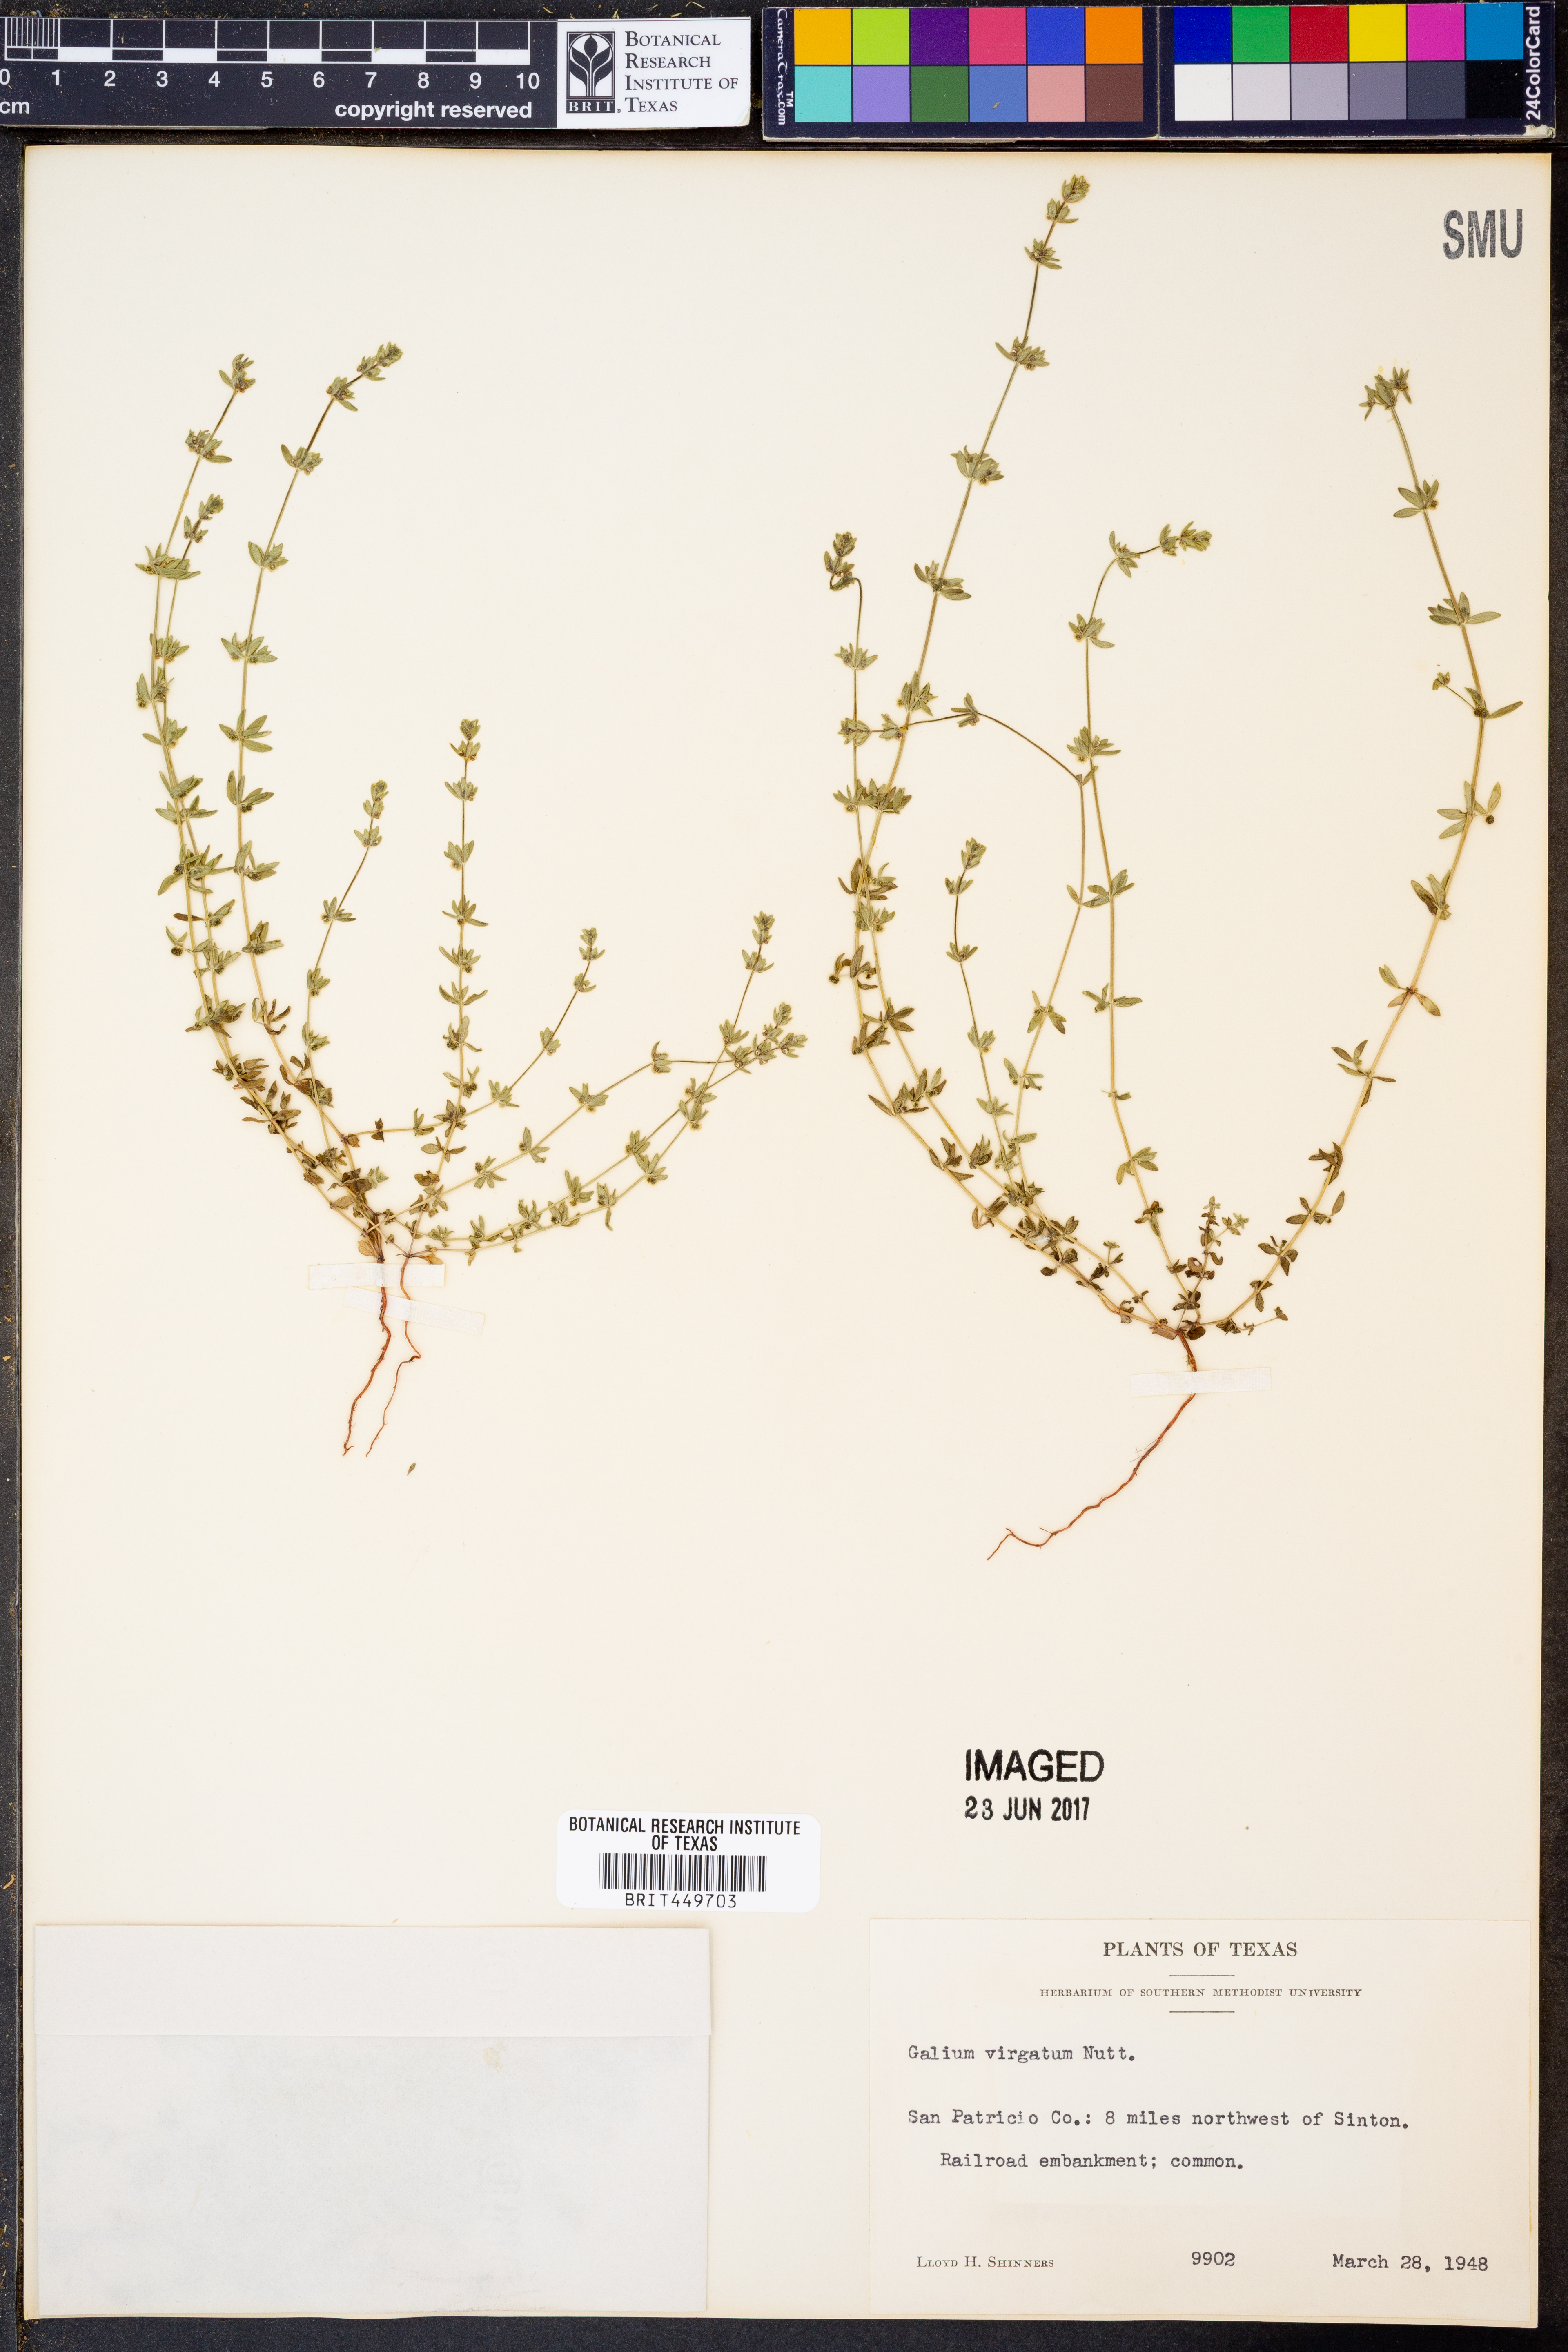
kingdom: Plantae
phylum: Tracheophyta
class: Magnoliopsida
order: Gentianales
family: Rubiaceae
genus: Galium
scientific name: Galium virgatum
